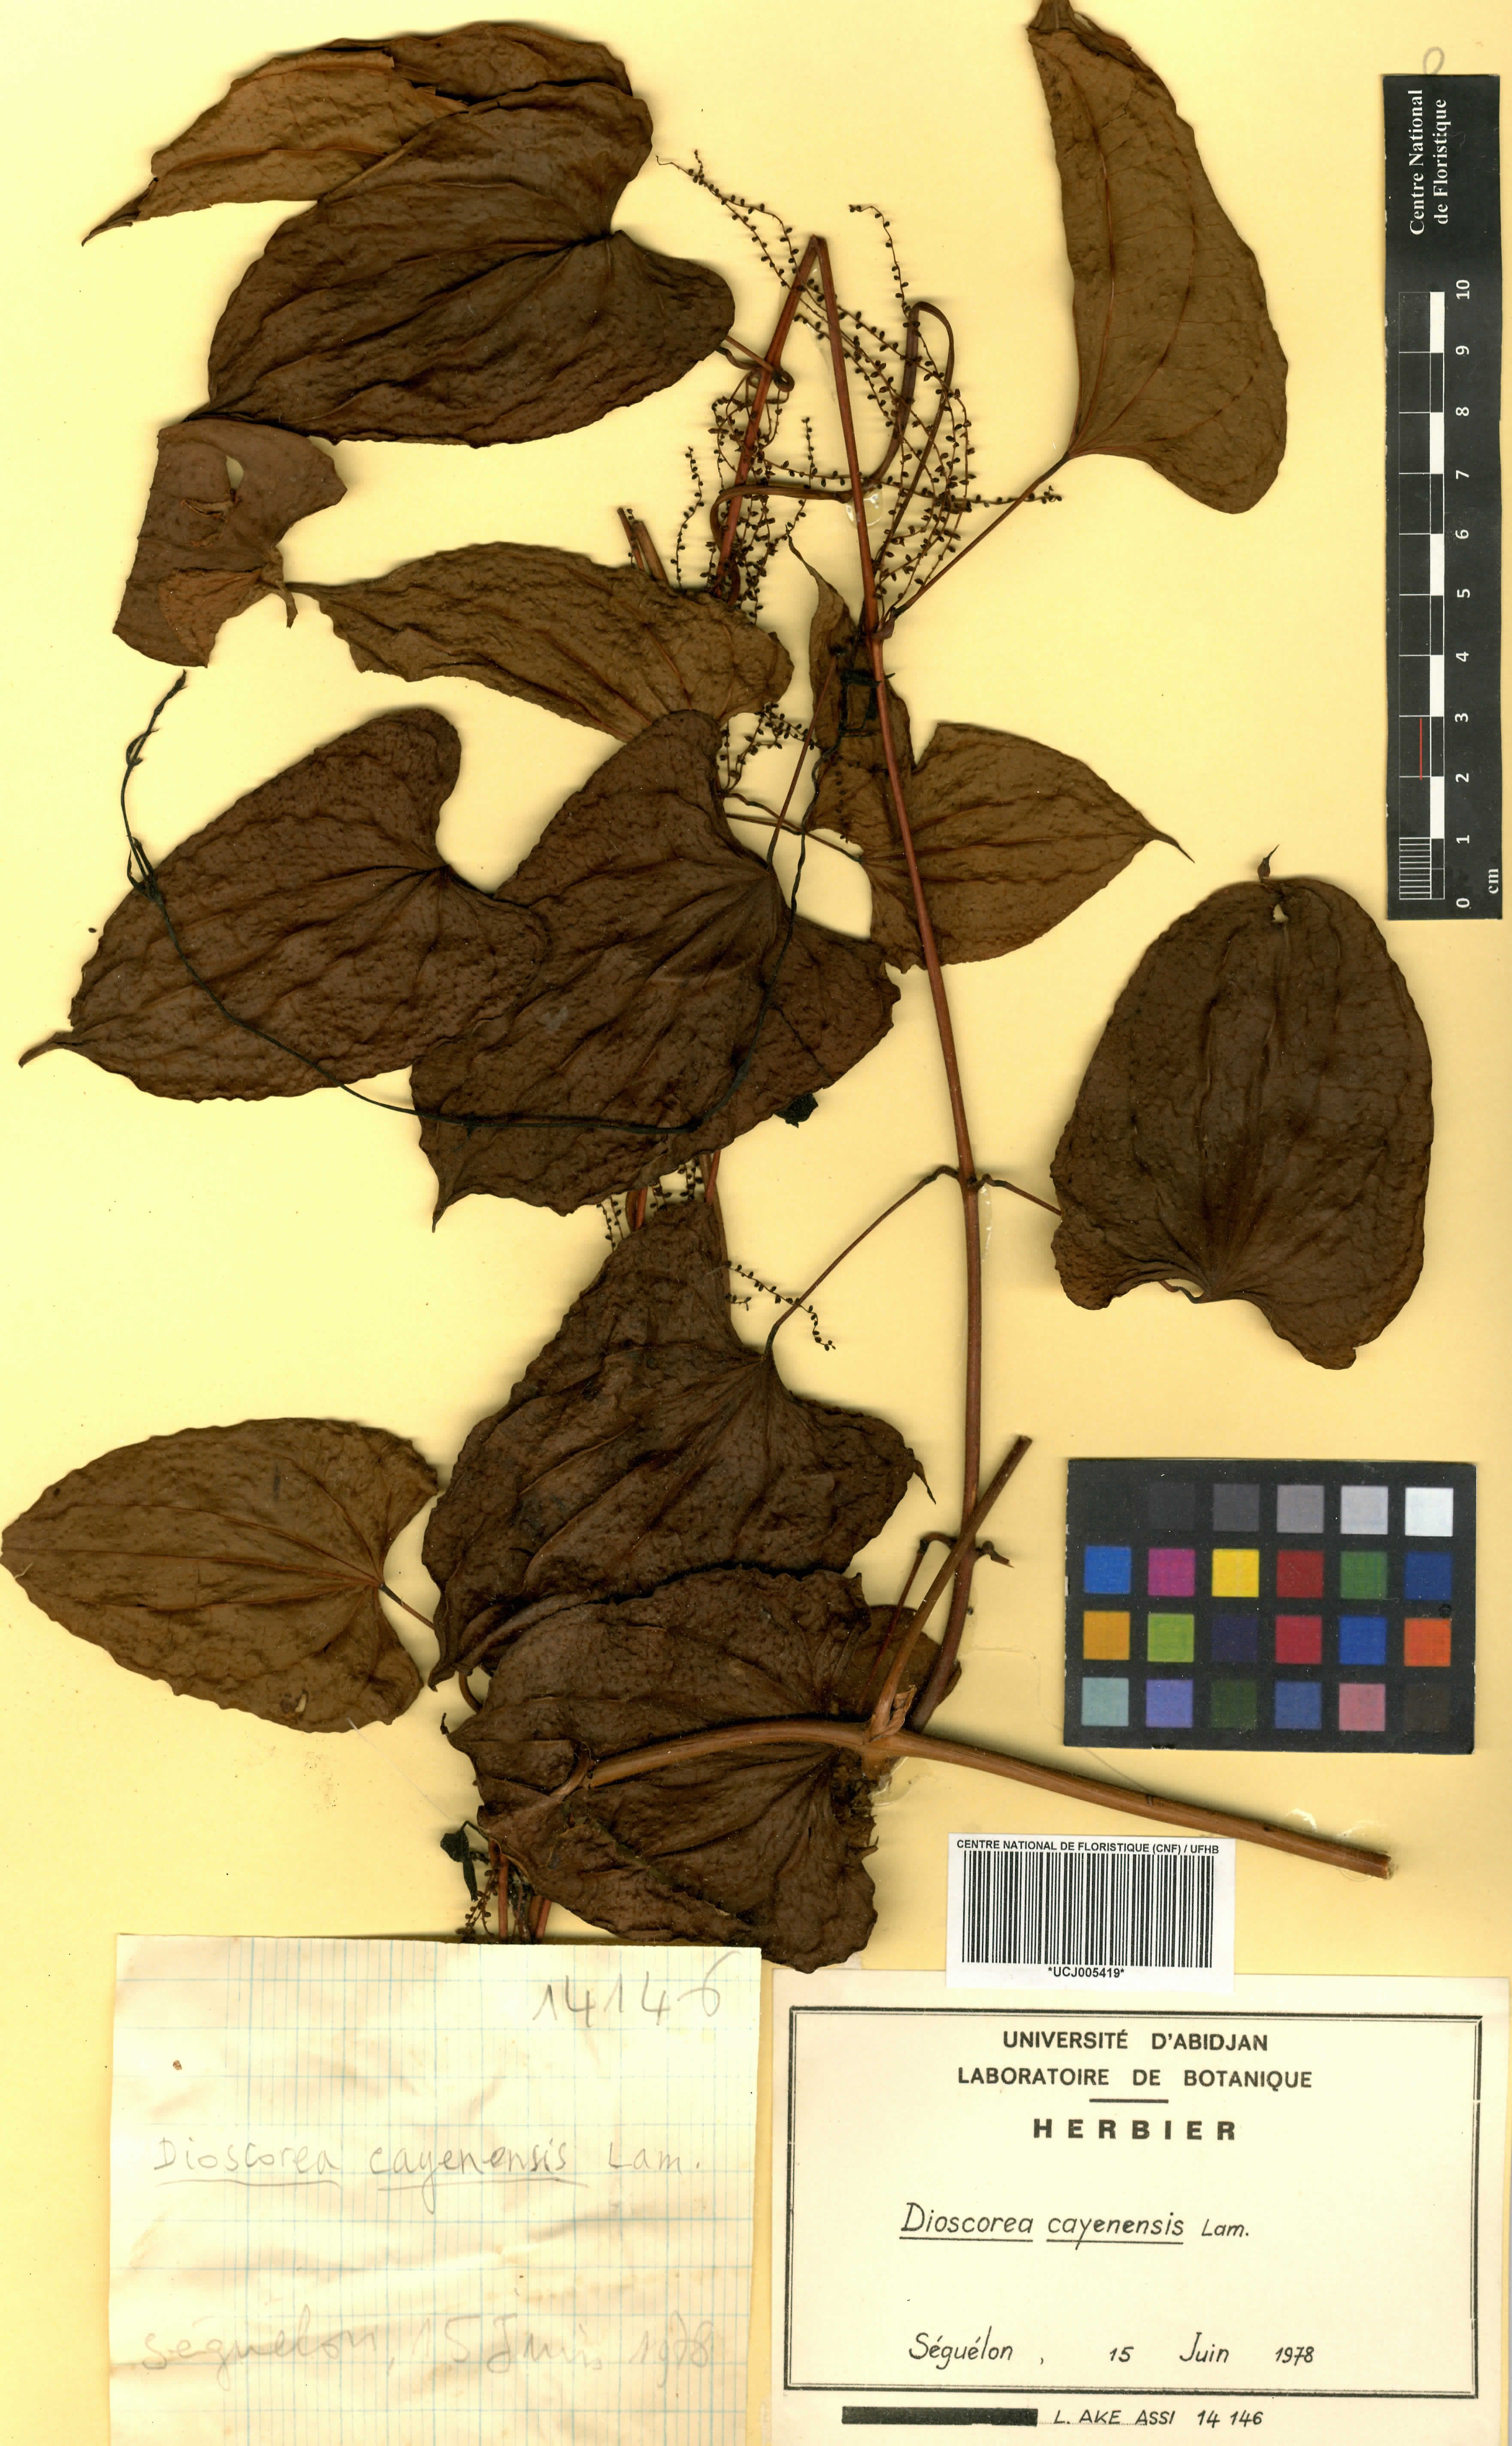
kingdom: Plantae
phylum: Tracheophyta
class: Liliopsida
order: Dioscoreales
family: Dioscoreaceae
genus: Dioscorea
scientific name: Dioscorea cayenensis
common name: Attoto yam
